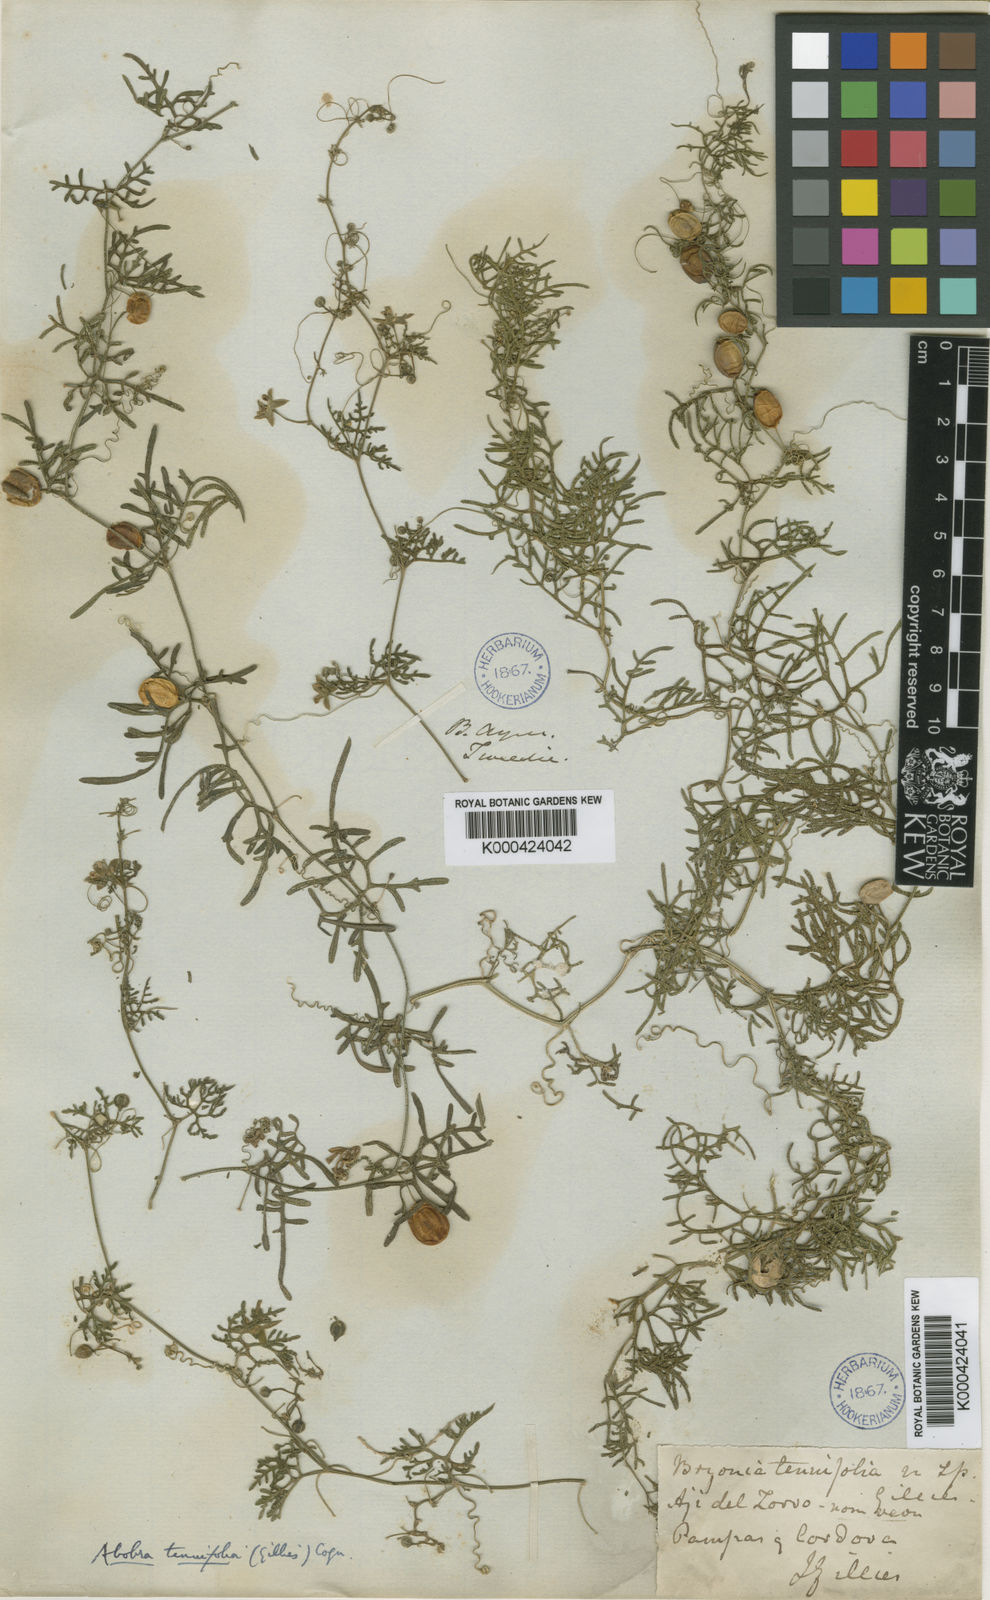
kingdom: Plantae
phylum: Tracheophyta
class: Magnoliopsida
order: Cucurbitales
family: Cucurbitaceae
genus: Abobra
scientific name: Abobra tenuifolia
